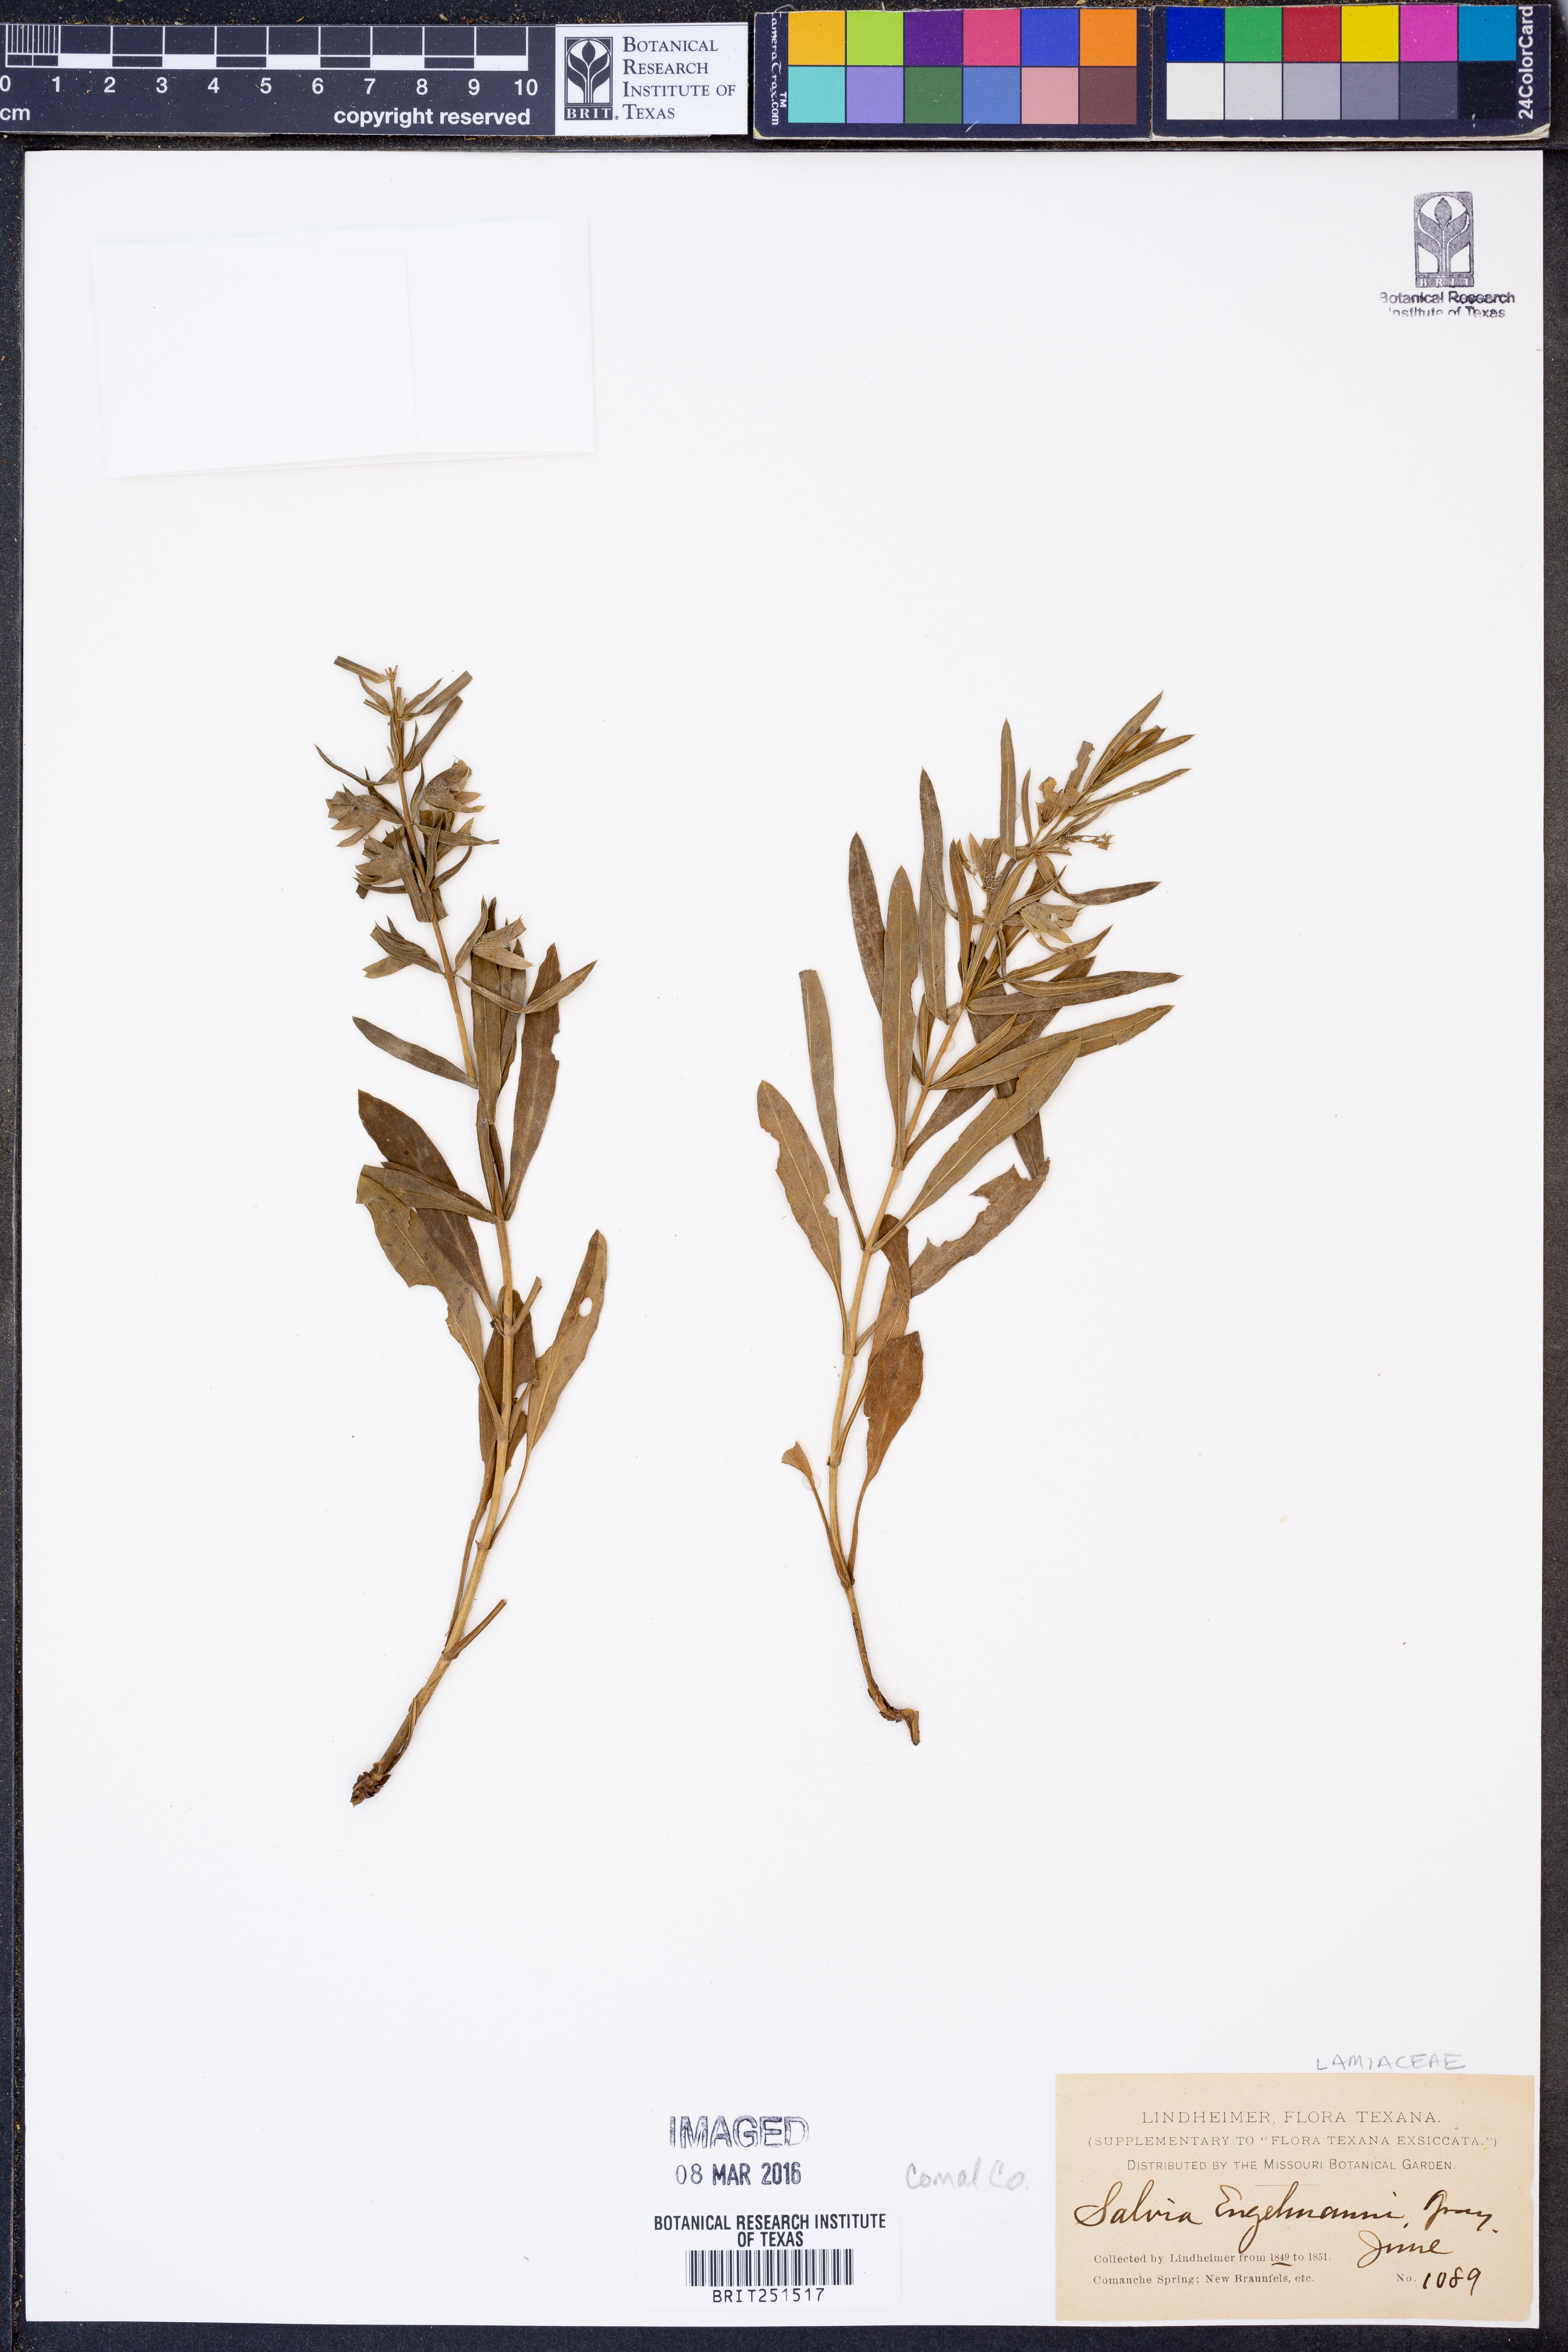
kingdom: Plantae
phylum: Tracheophyta
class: Magnoliopsida
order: Lamiales
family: Lamiaceae
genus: Salvia
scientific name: Salvia engelmannii
